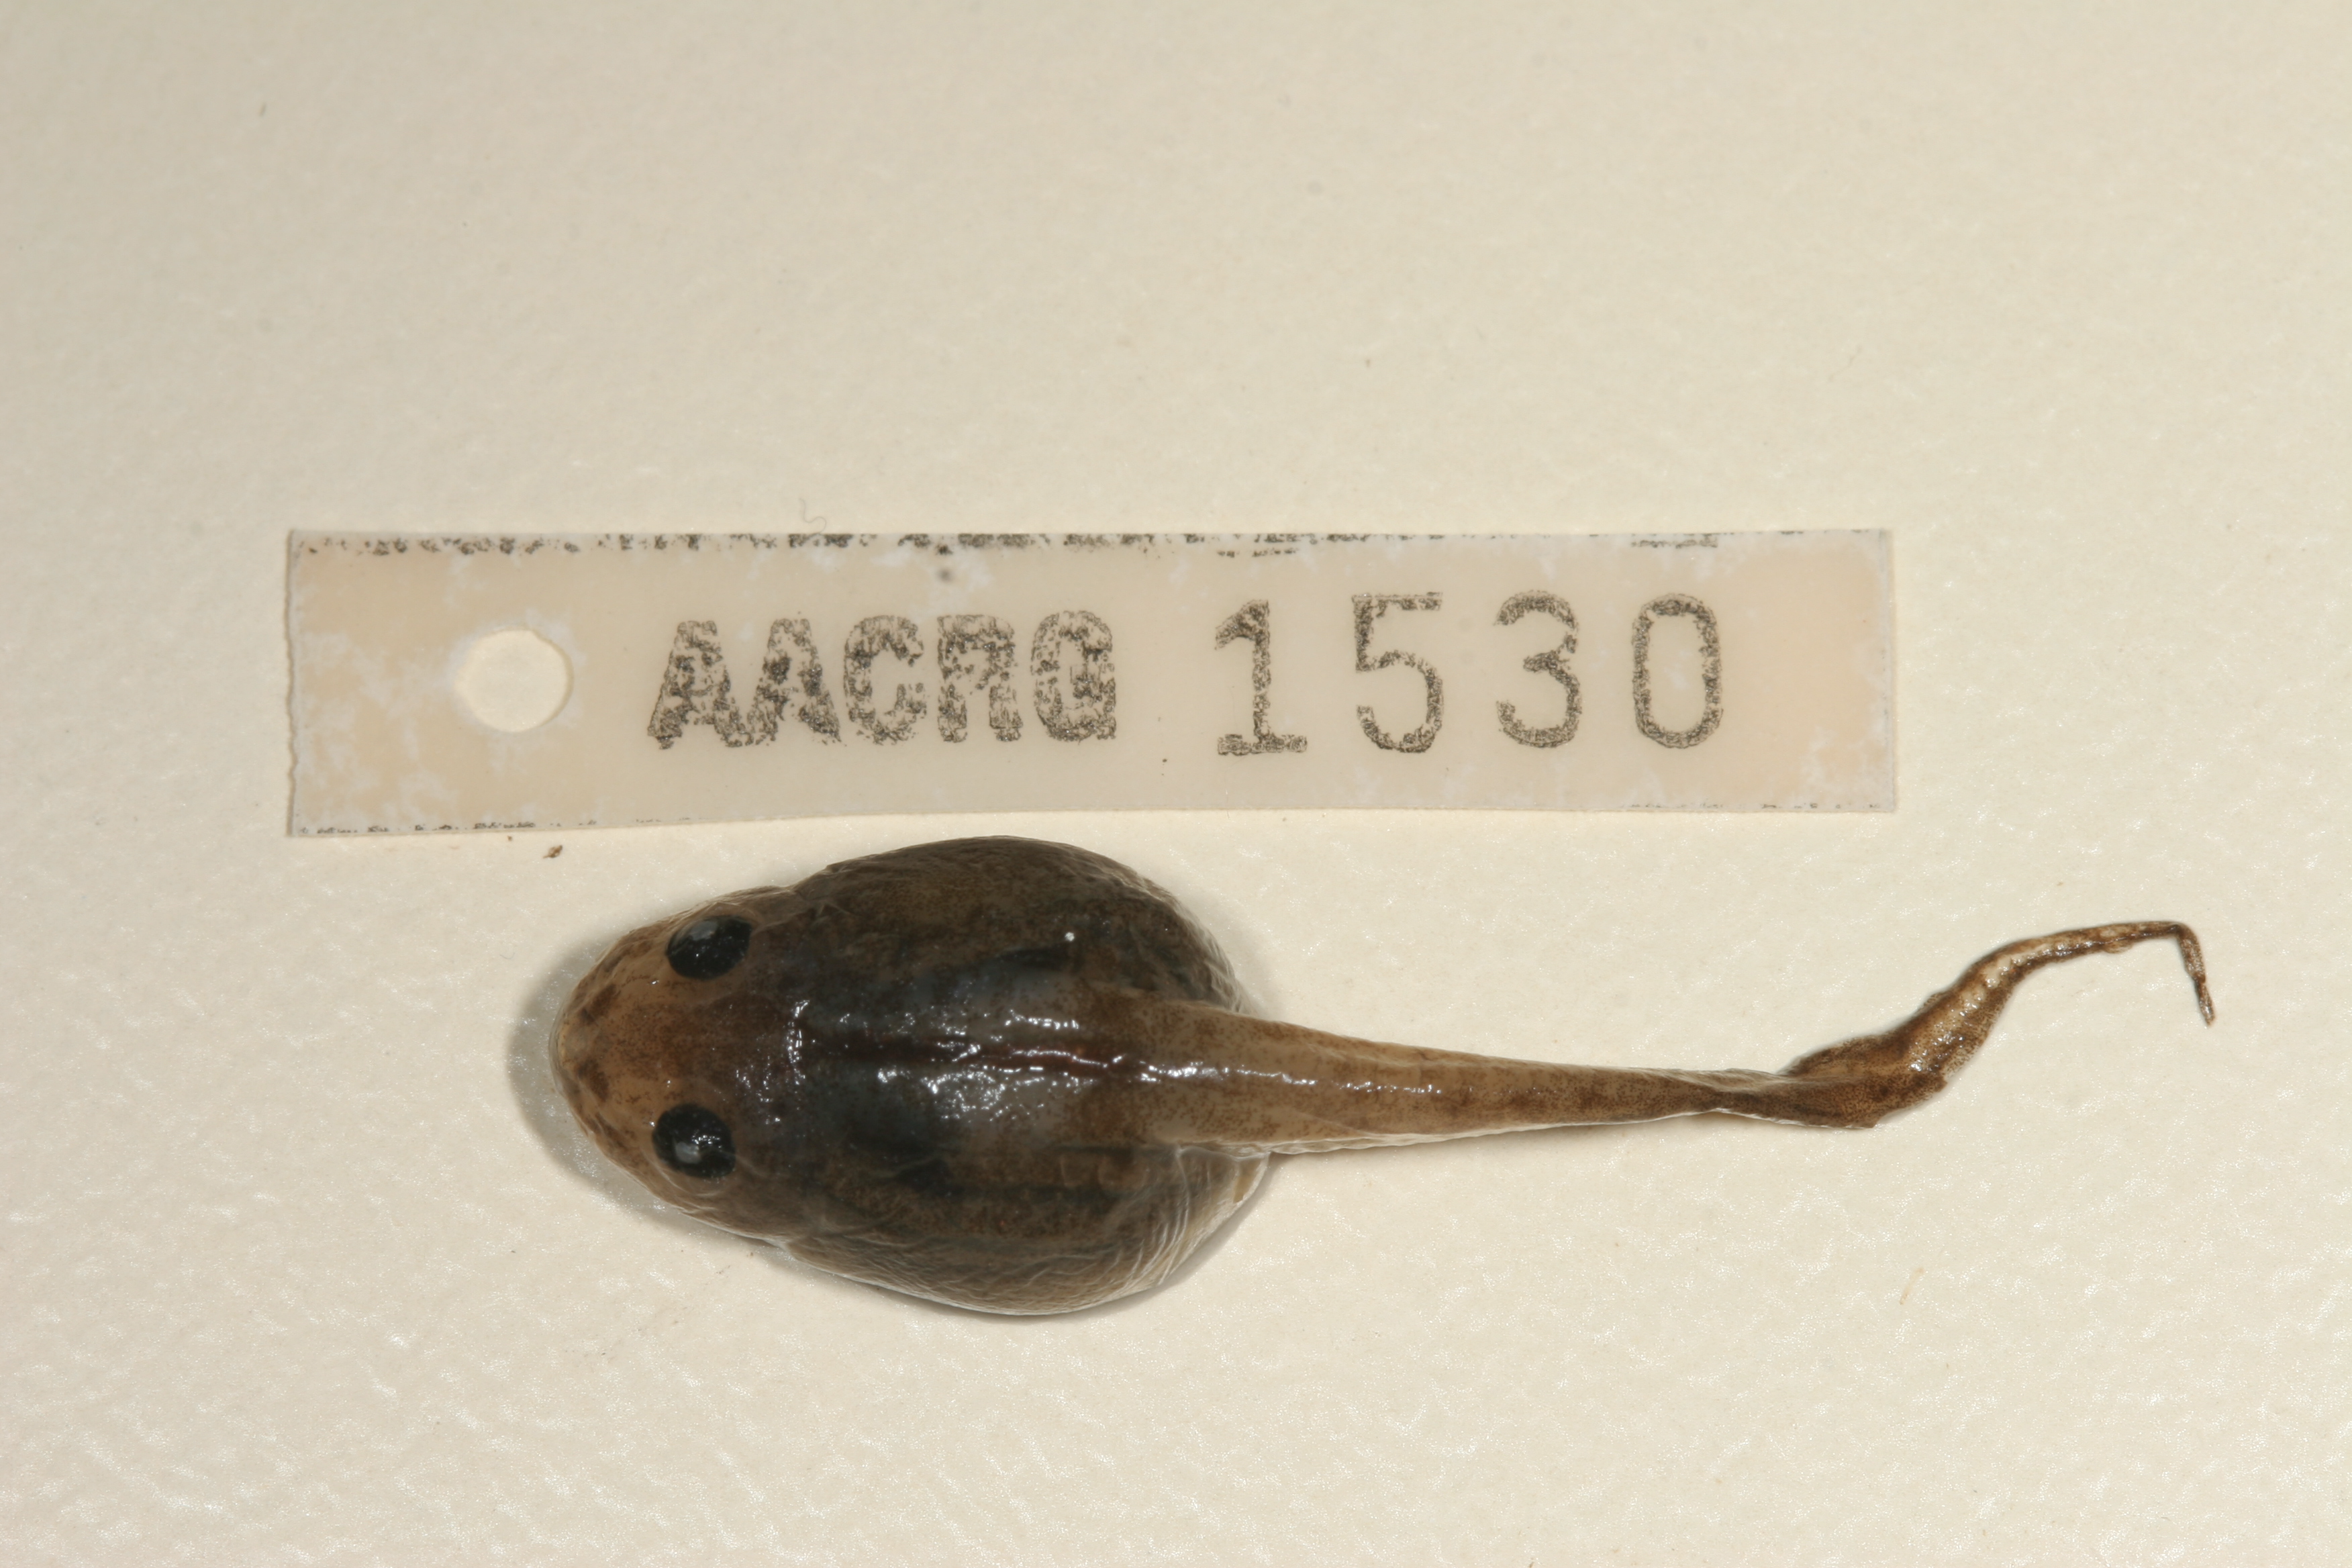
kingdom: Animalia
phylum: Chordata
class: Amphibia
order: Anura
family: Rhacophoridae
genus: Chiromantis
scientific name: Chiromantis xerampelina
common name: African gray treefrog
